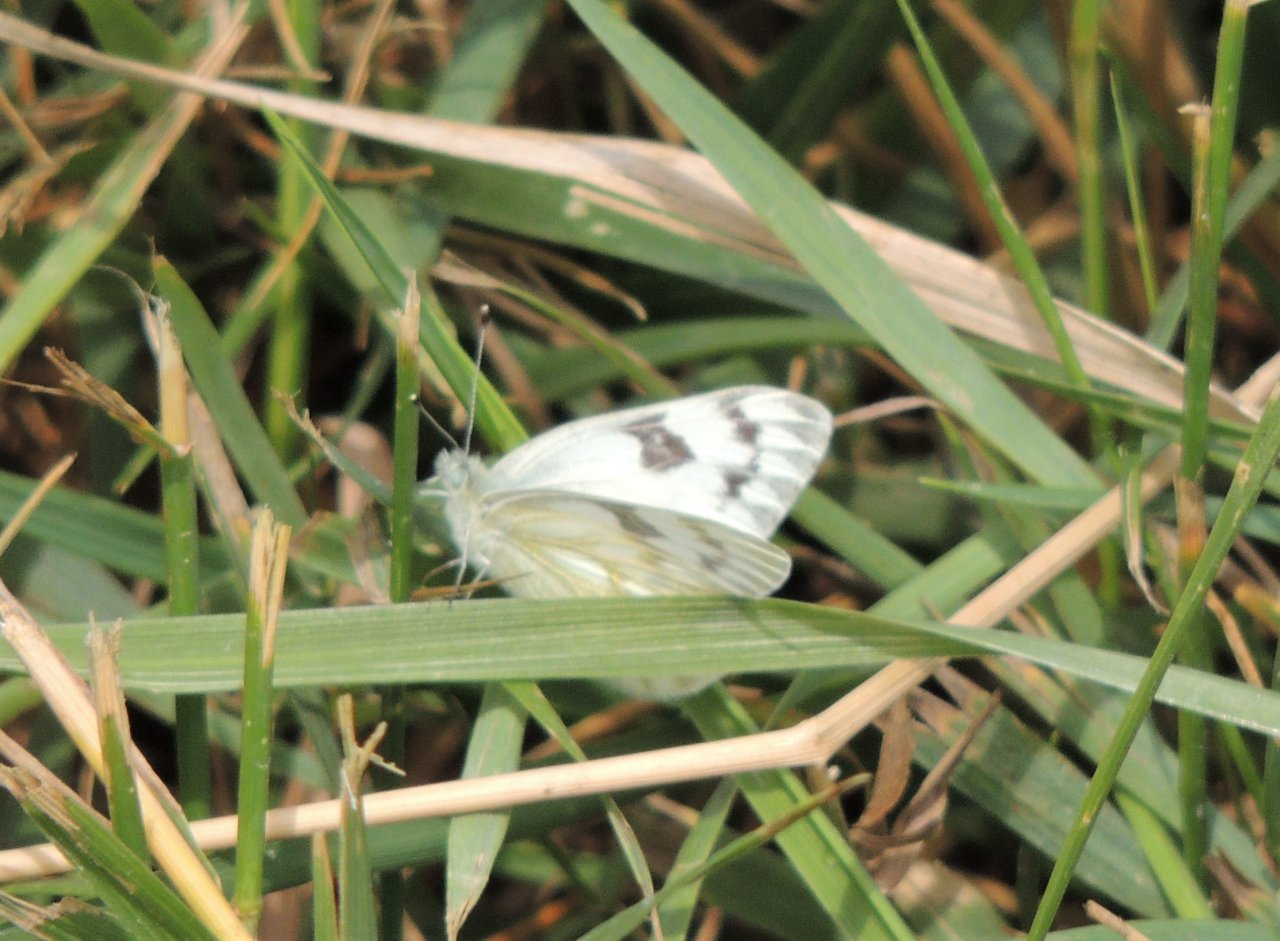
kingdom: Animalia
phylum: Arthropoda
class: Insecta
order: Lepidoptera
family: Pieridae
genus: Pontia
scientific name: Pontia occidentalis
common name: Western White
